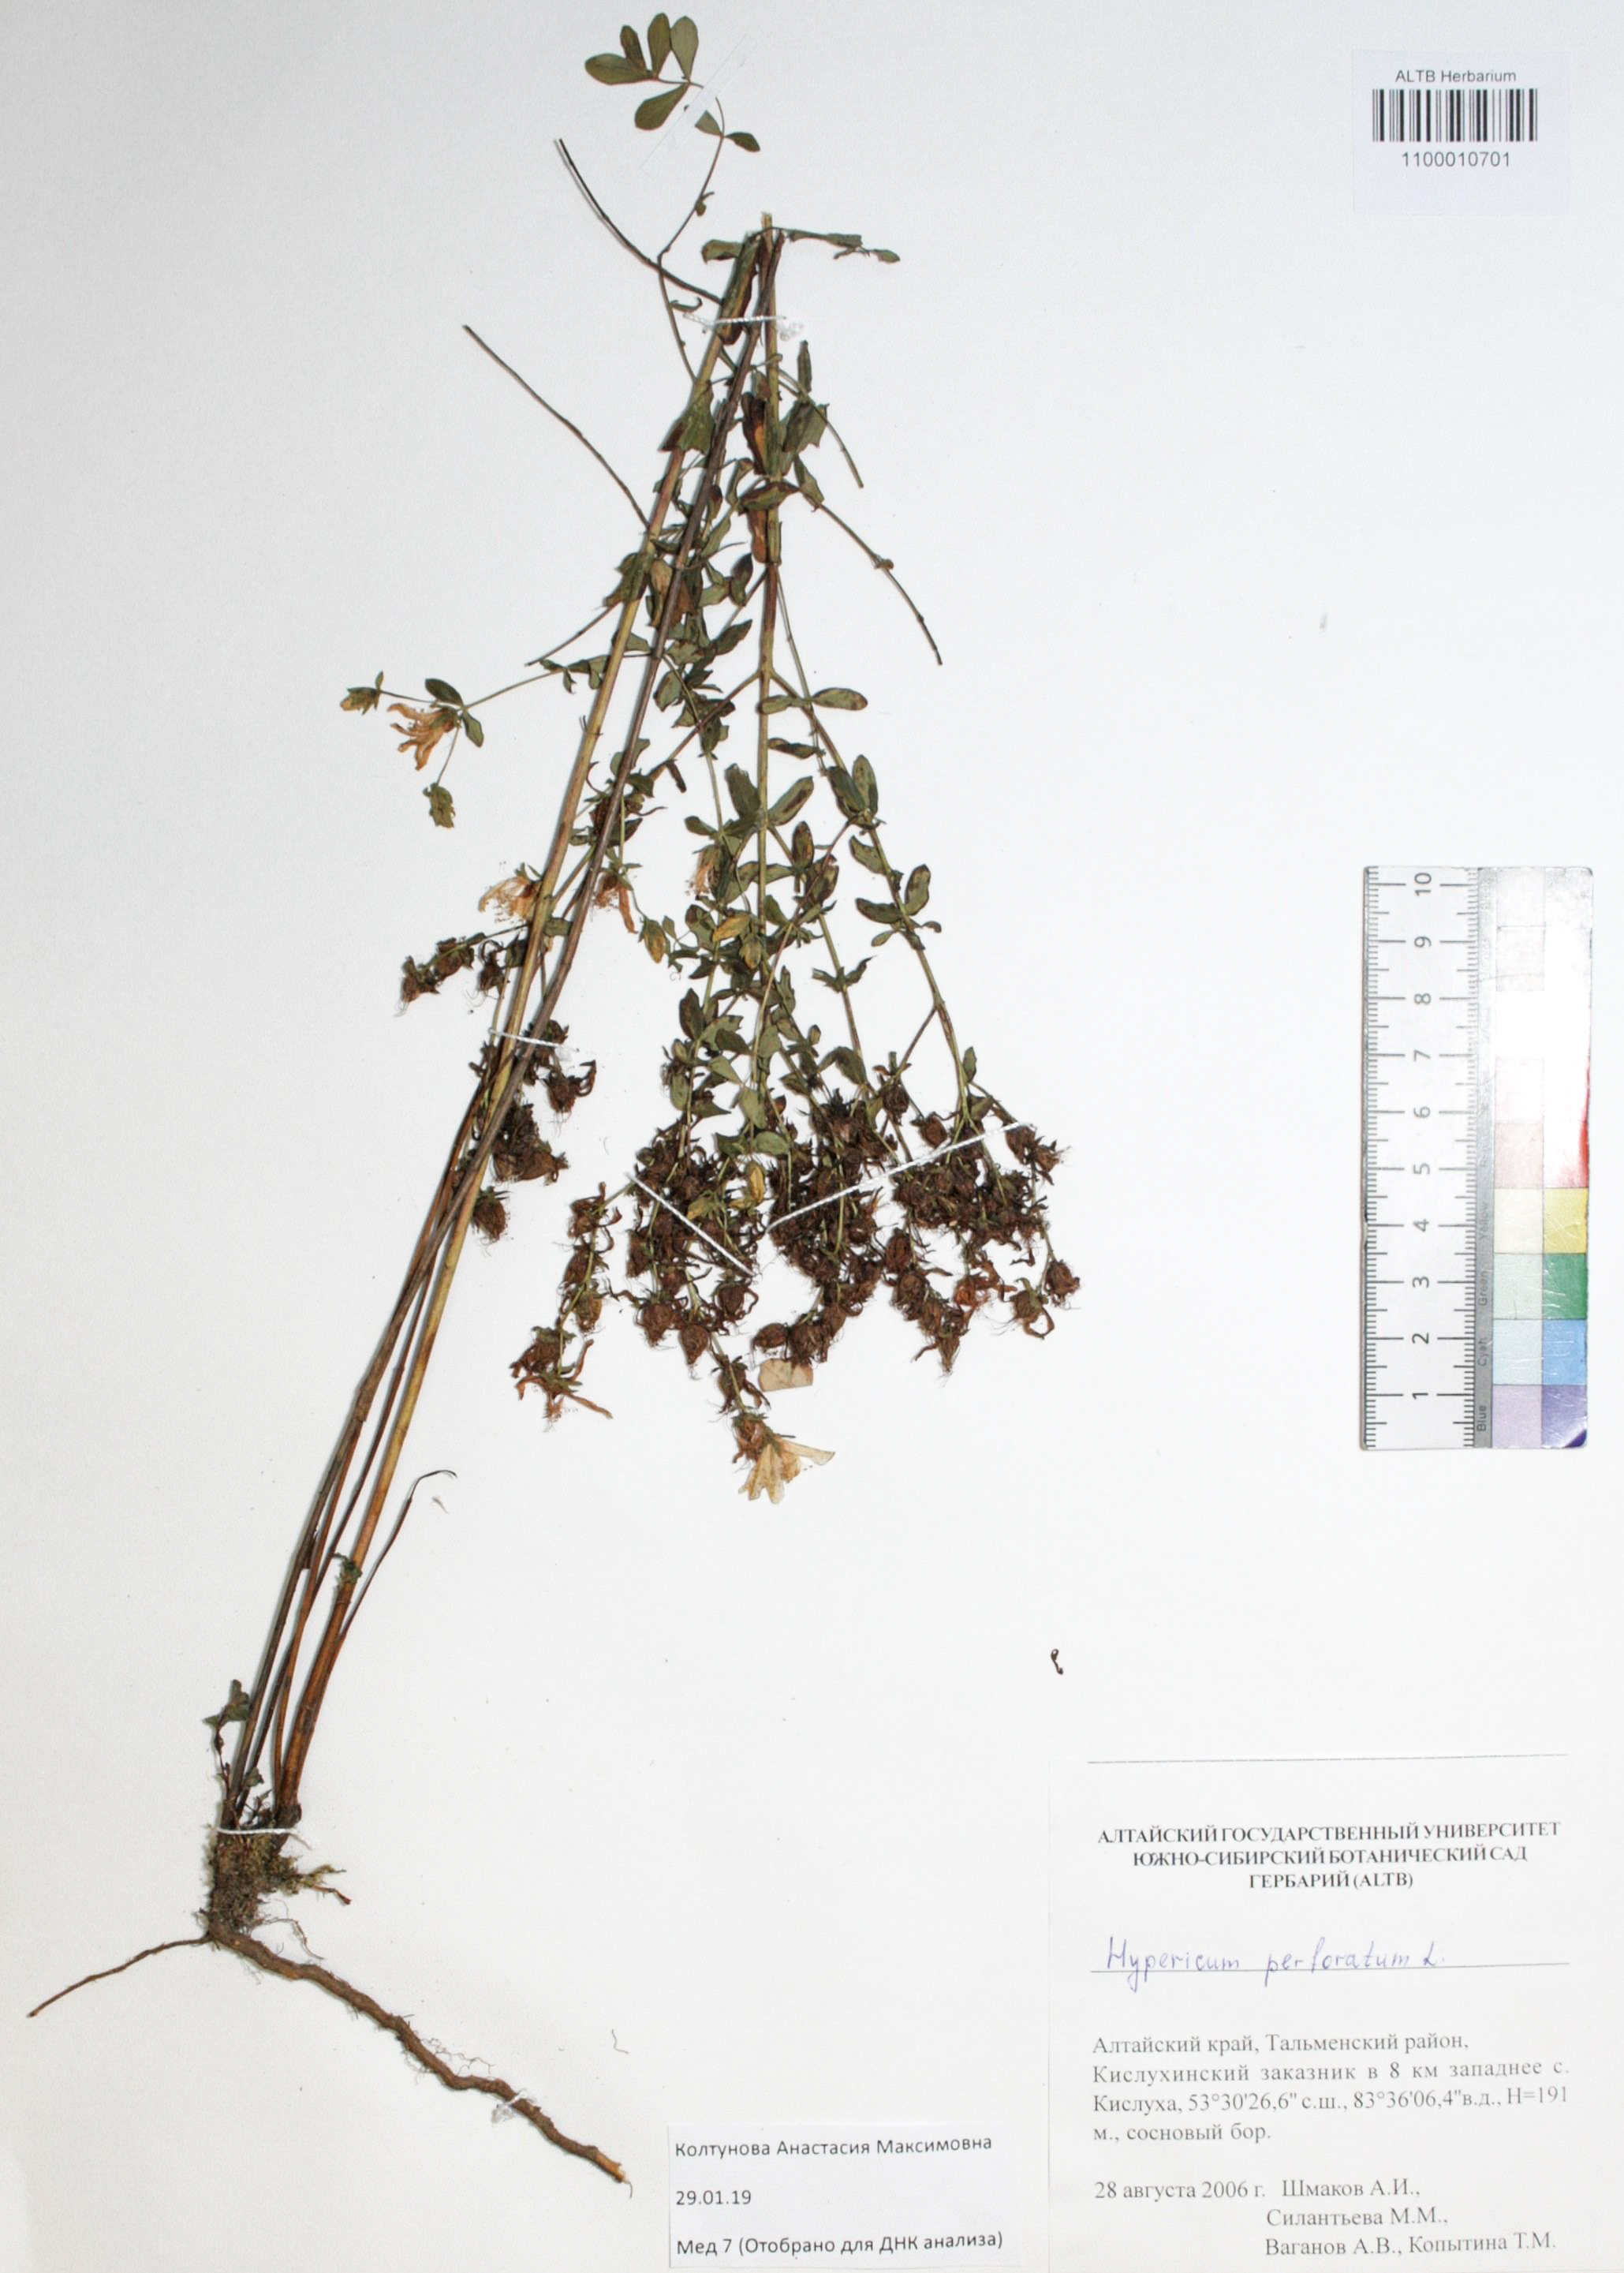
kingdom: Plantae
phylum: Tracheophyta
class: Magnoliopsida
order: Malpighiales
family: Hypericaceae
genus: Hypericum
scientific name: Hypericum perforatum
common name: Common st. johnswort
